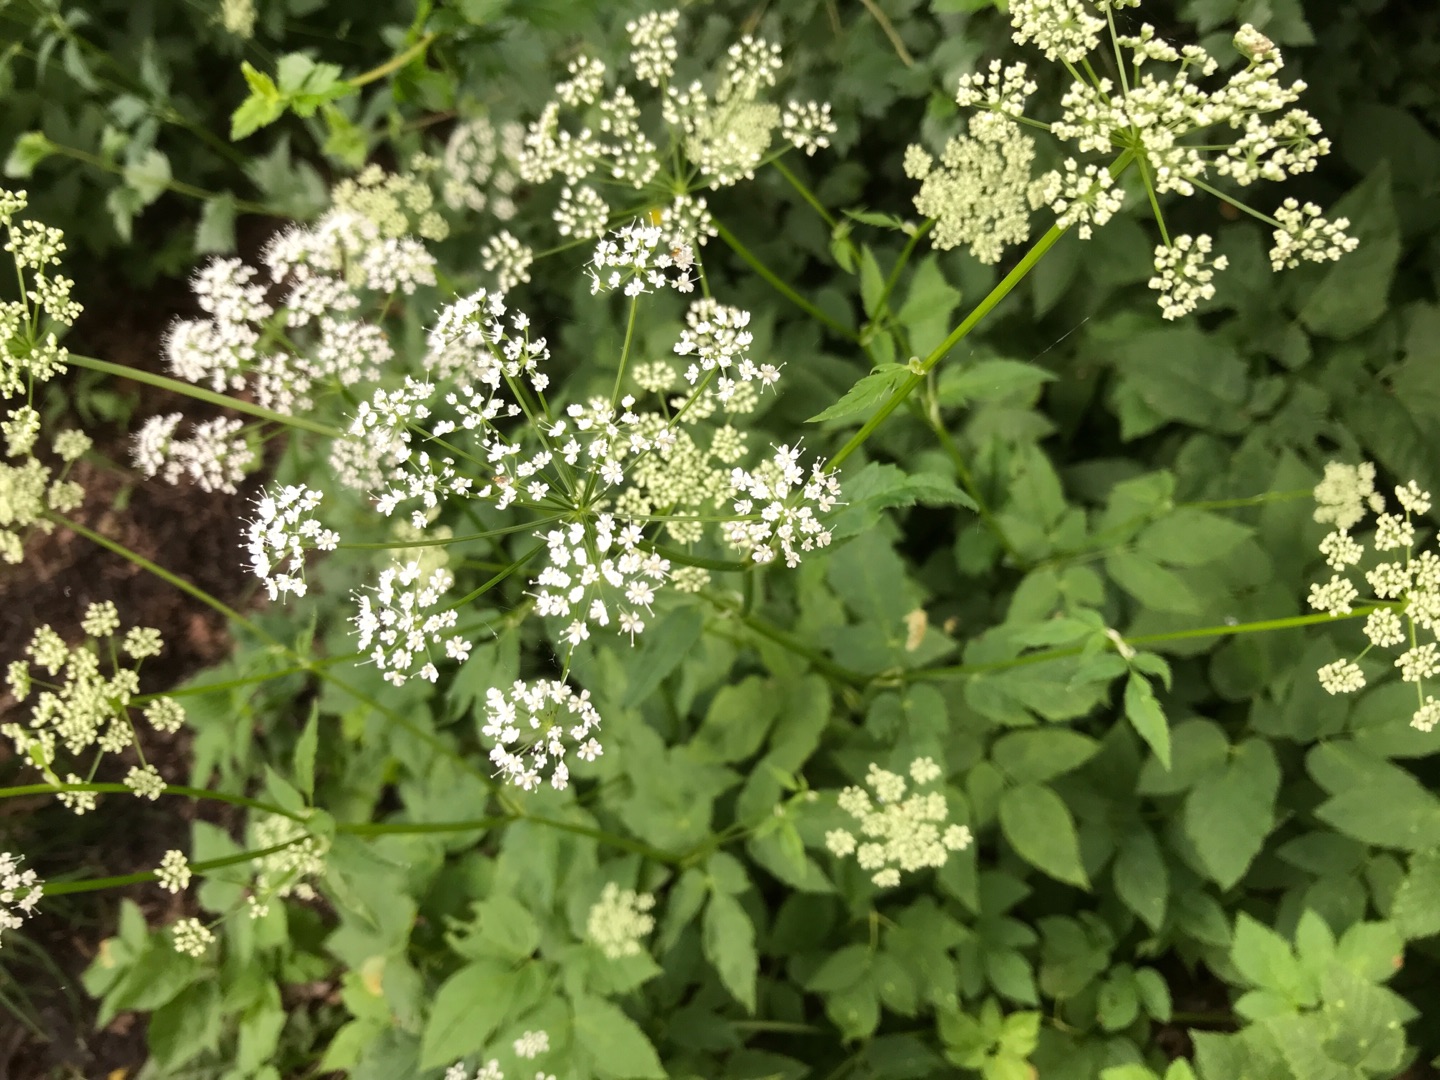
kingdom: Plantae
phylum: Tracheophyta
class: Magnoliopsida
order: Apiales
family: Apiaceae
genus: Aegopodium
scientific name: Aegopodium podagraria
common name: Skvalderkål
